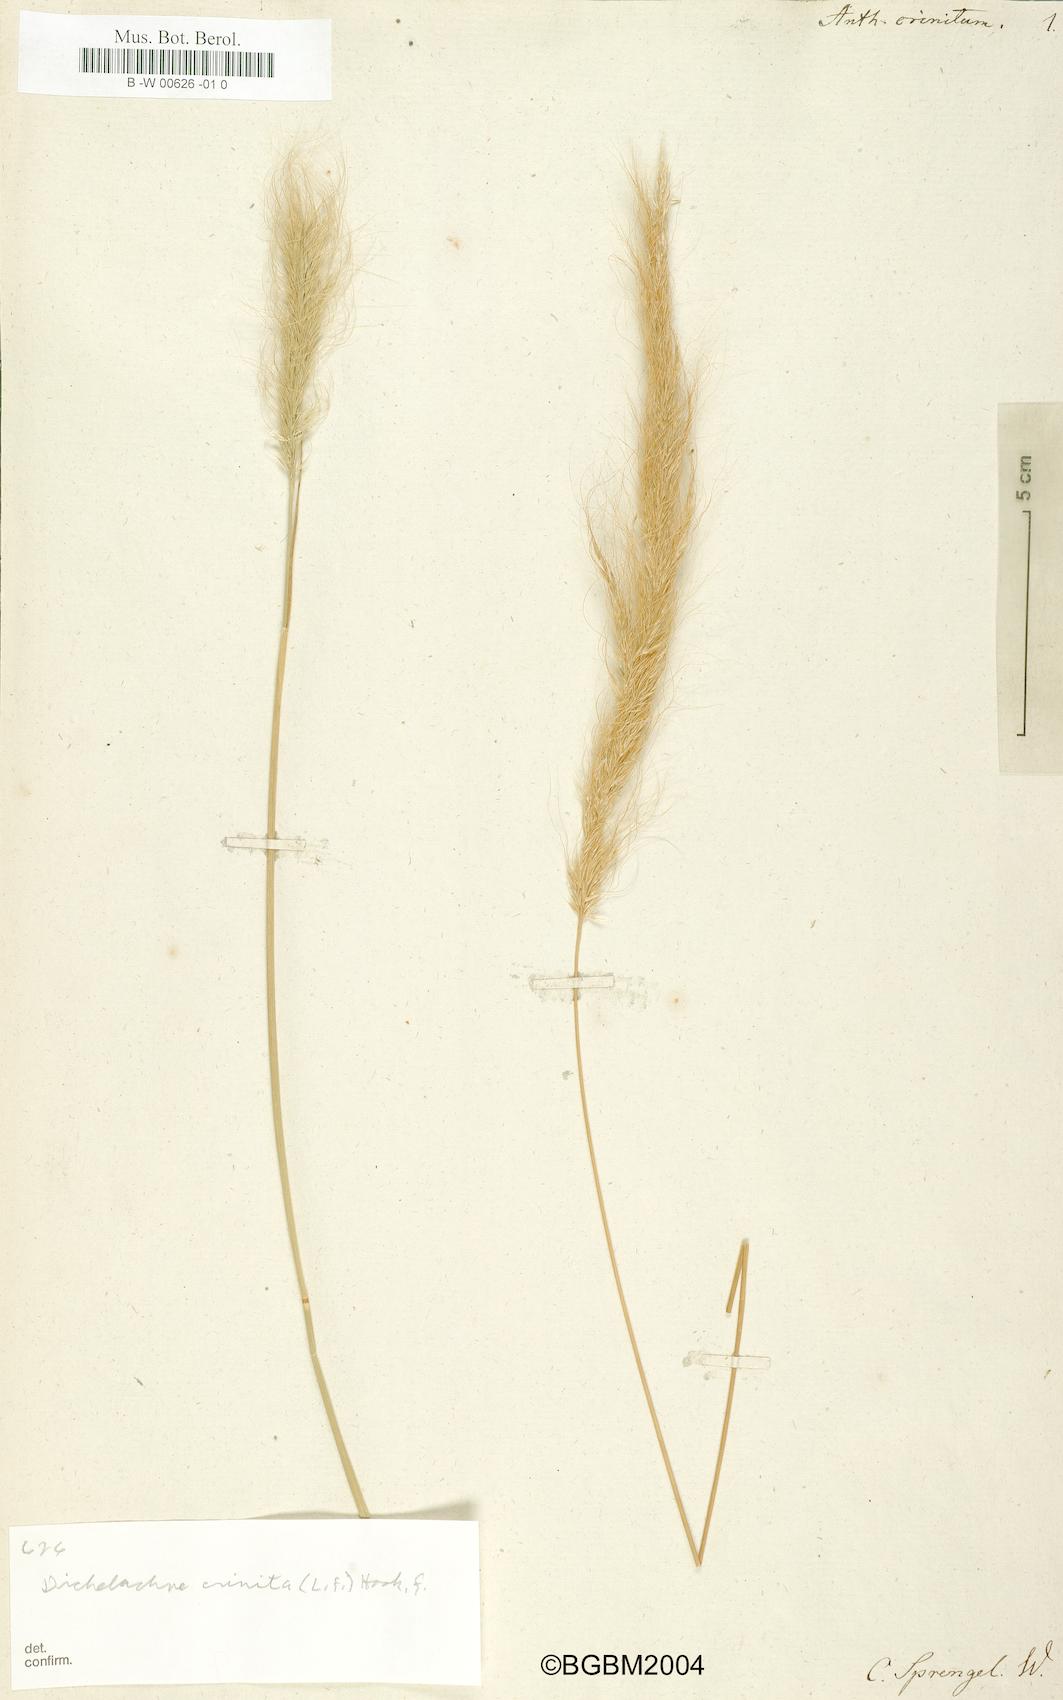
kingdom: Plantae
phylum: Tracheophyta
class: Liliopsida
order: Poales
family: Poaceae
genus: Dichelachne
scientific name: Dichelachne crinita
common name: Clovenfoot plumegrass
